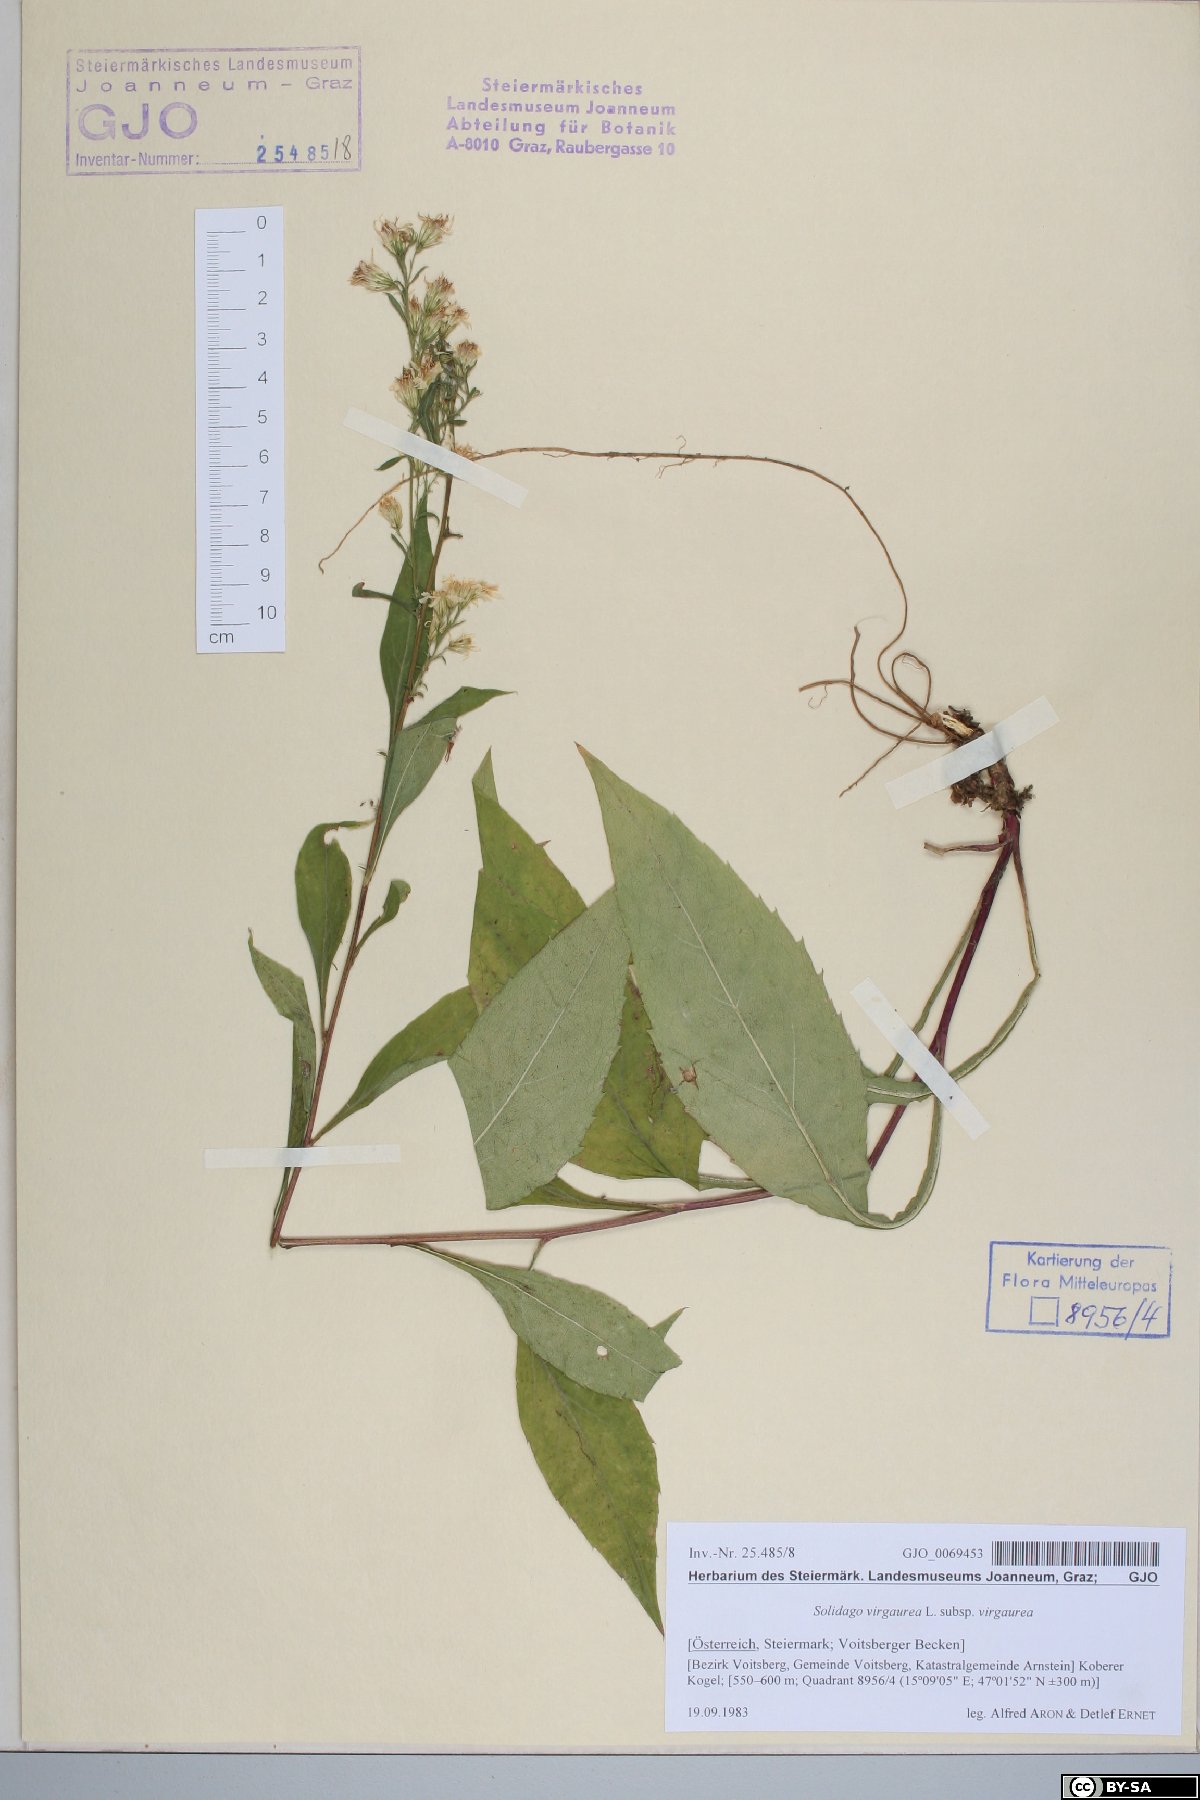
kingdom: Plantae
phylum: Tracheophyta
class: Magnoliopsida
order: Asterales
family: Asteraceae
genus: Solidago
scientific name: Solidago virgaurea
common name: Goldenrod
